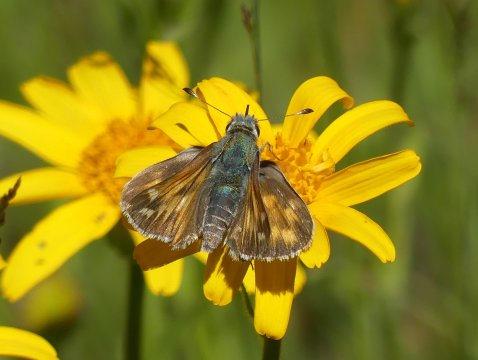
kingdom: Animalia
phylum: Arthropoda
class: Insecta
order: Lepidoptera
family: Hesperiidae
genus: Hesperia
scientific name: Hesperia juba
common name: Juba Skipper
